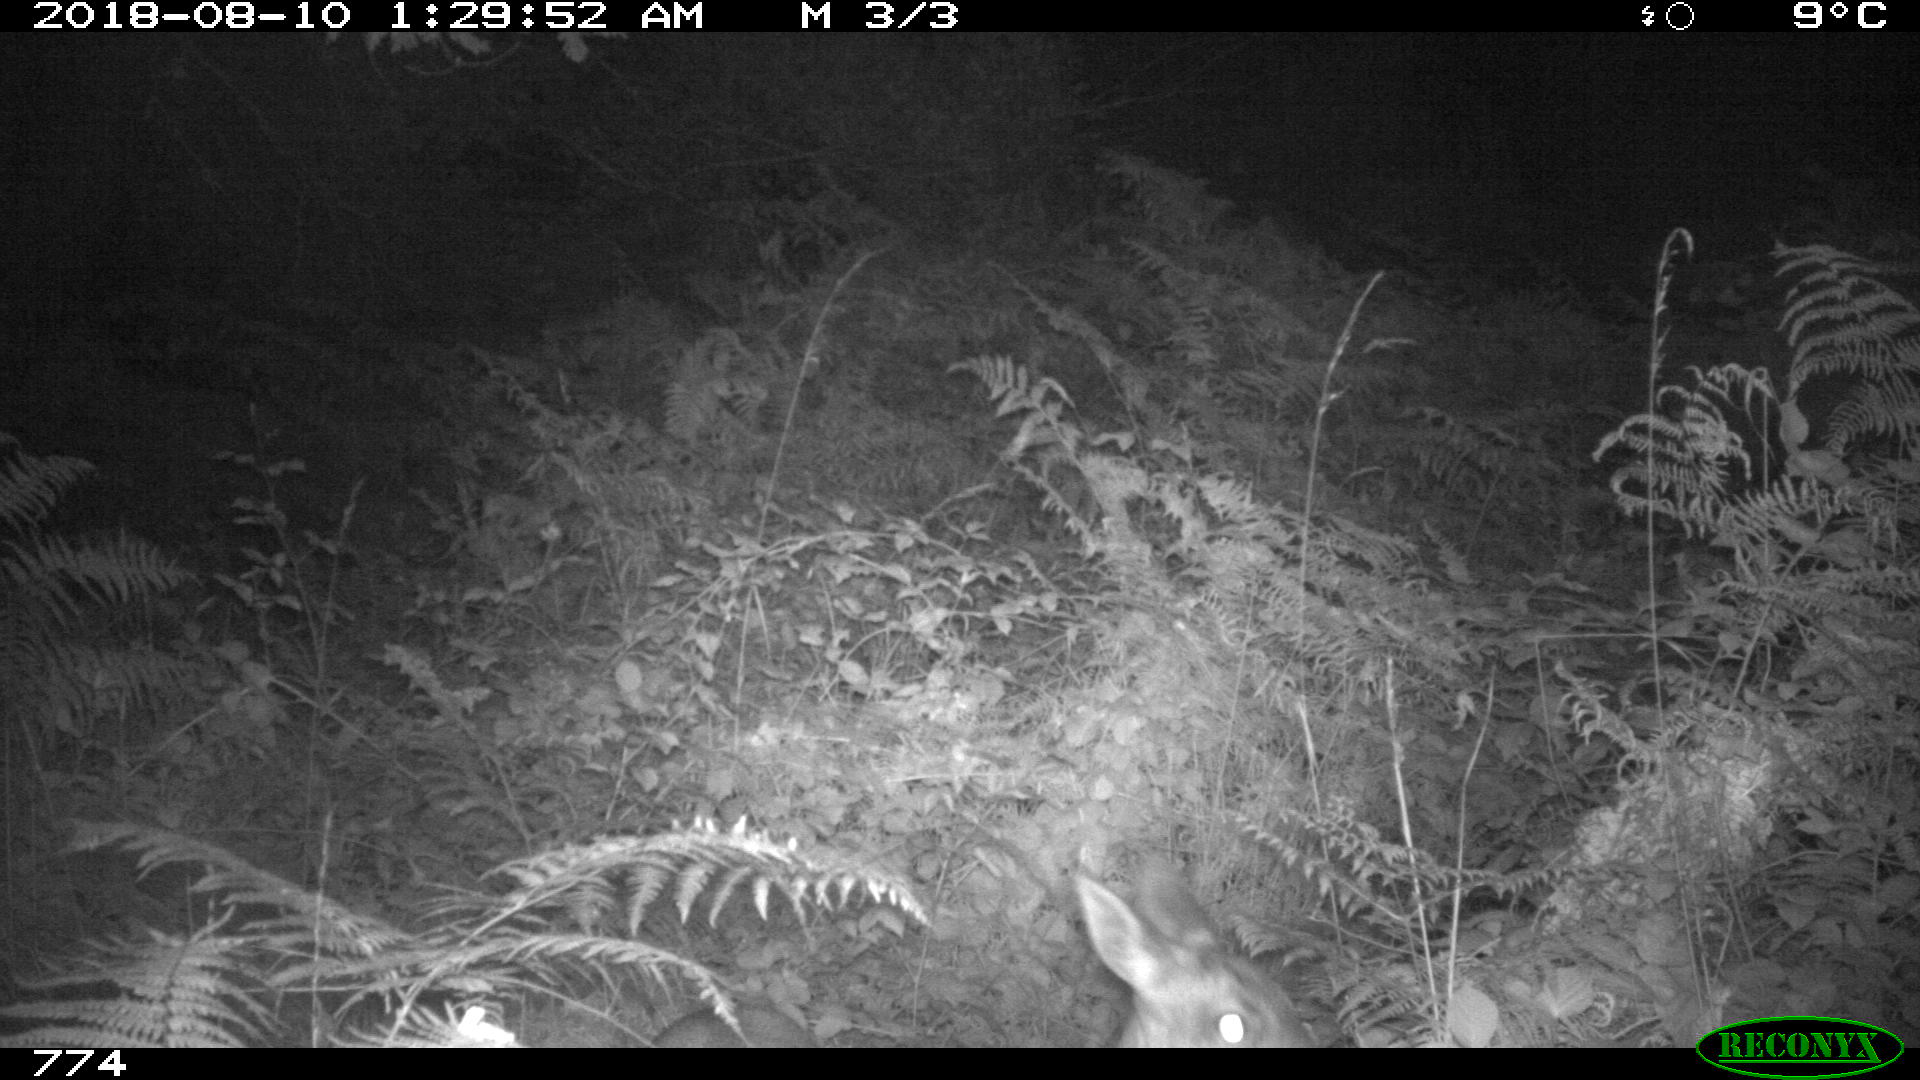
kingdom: Animalia
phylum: Chordata
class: Mammalia
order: Artiodactyla
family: Cervidae
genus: Capreolus
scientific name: Capreolus capreolus
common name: Western roe deer
